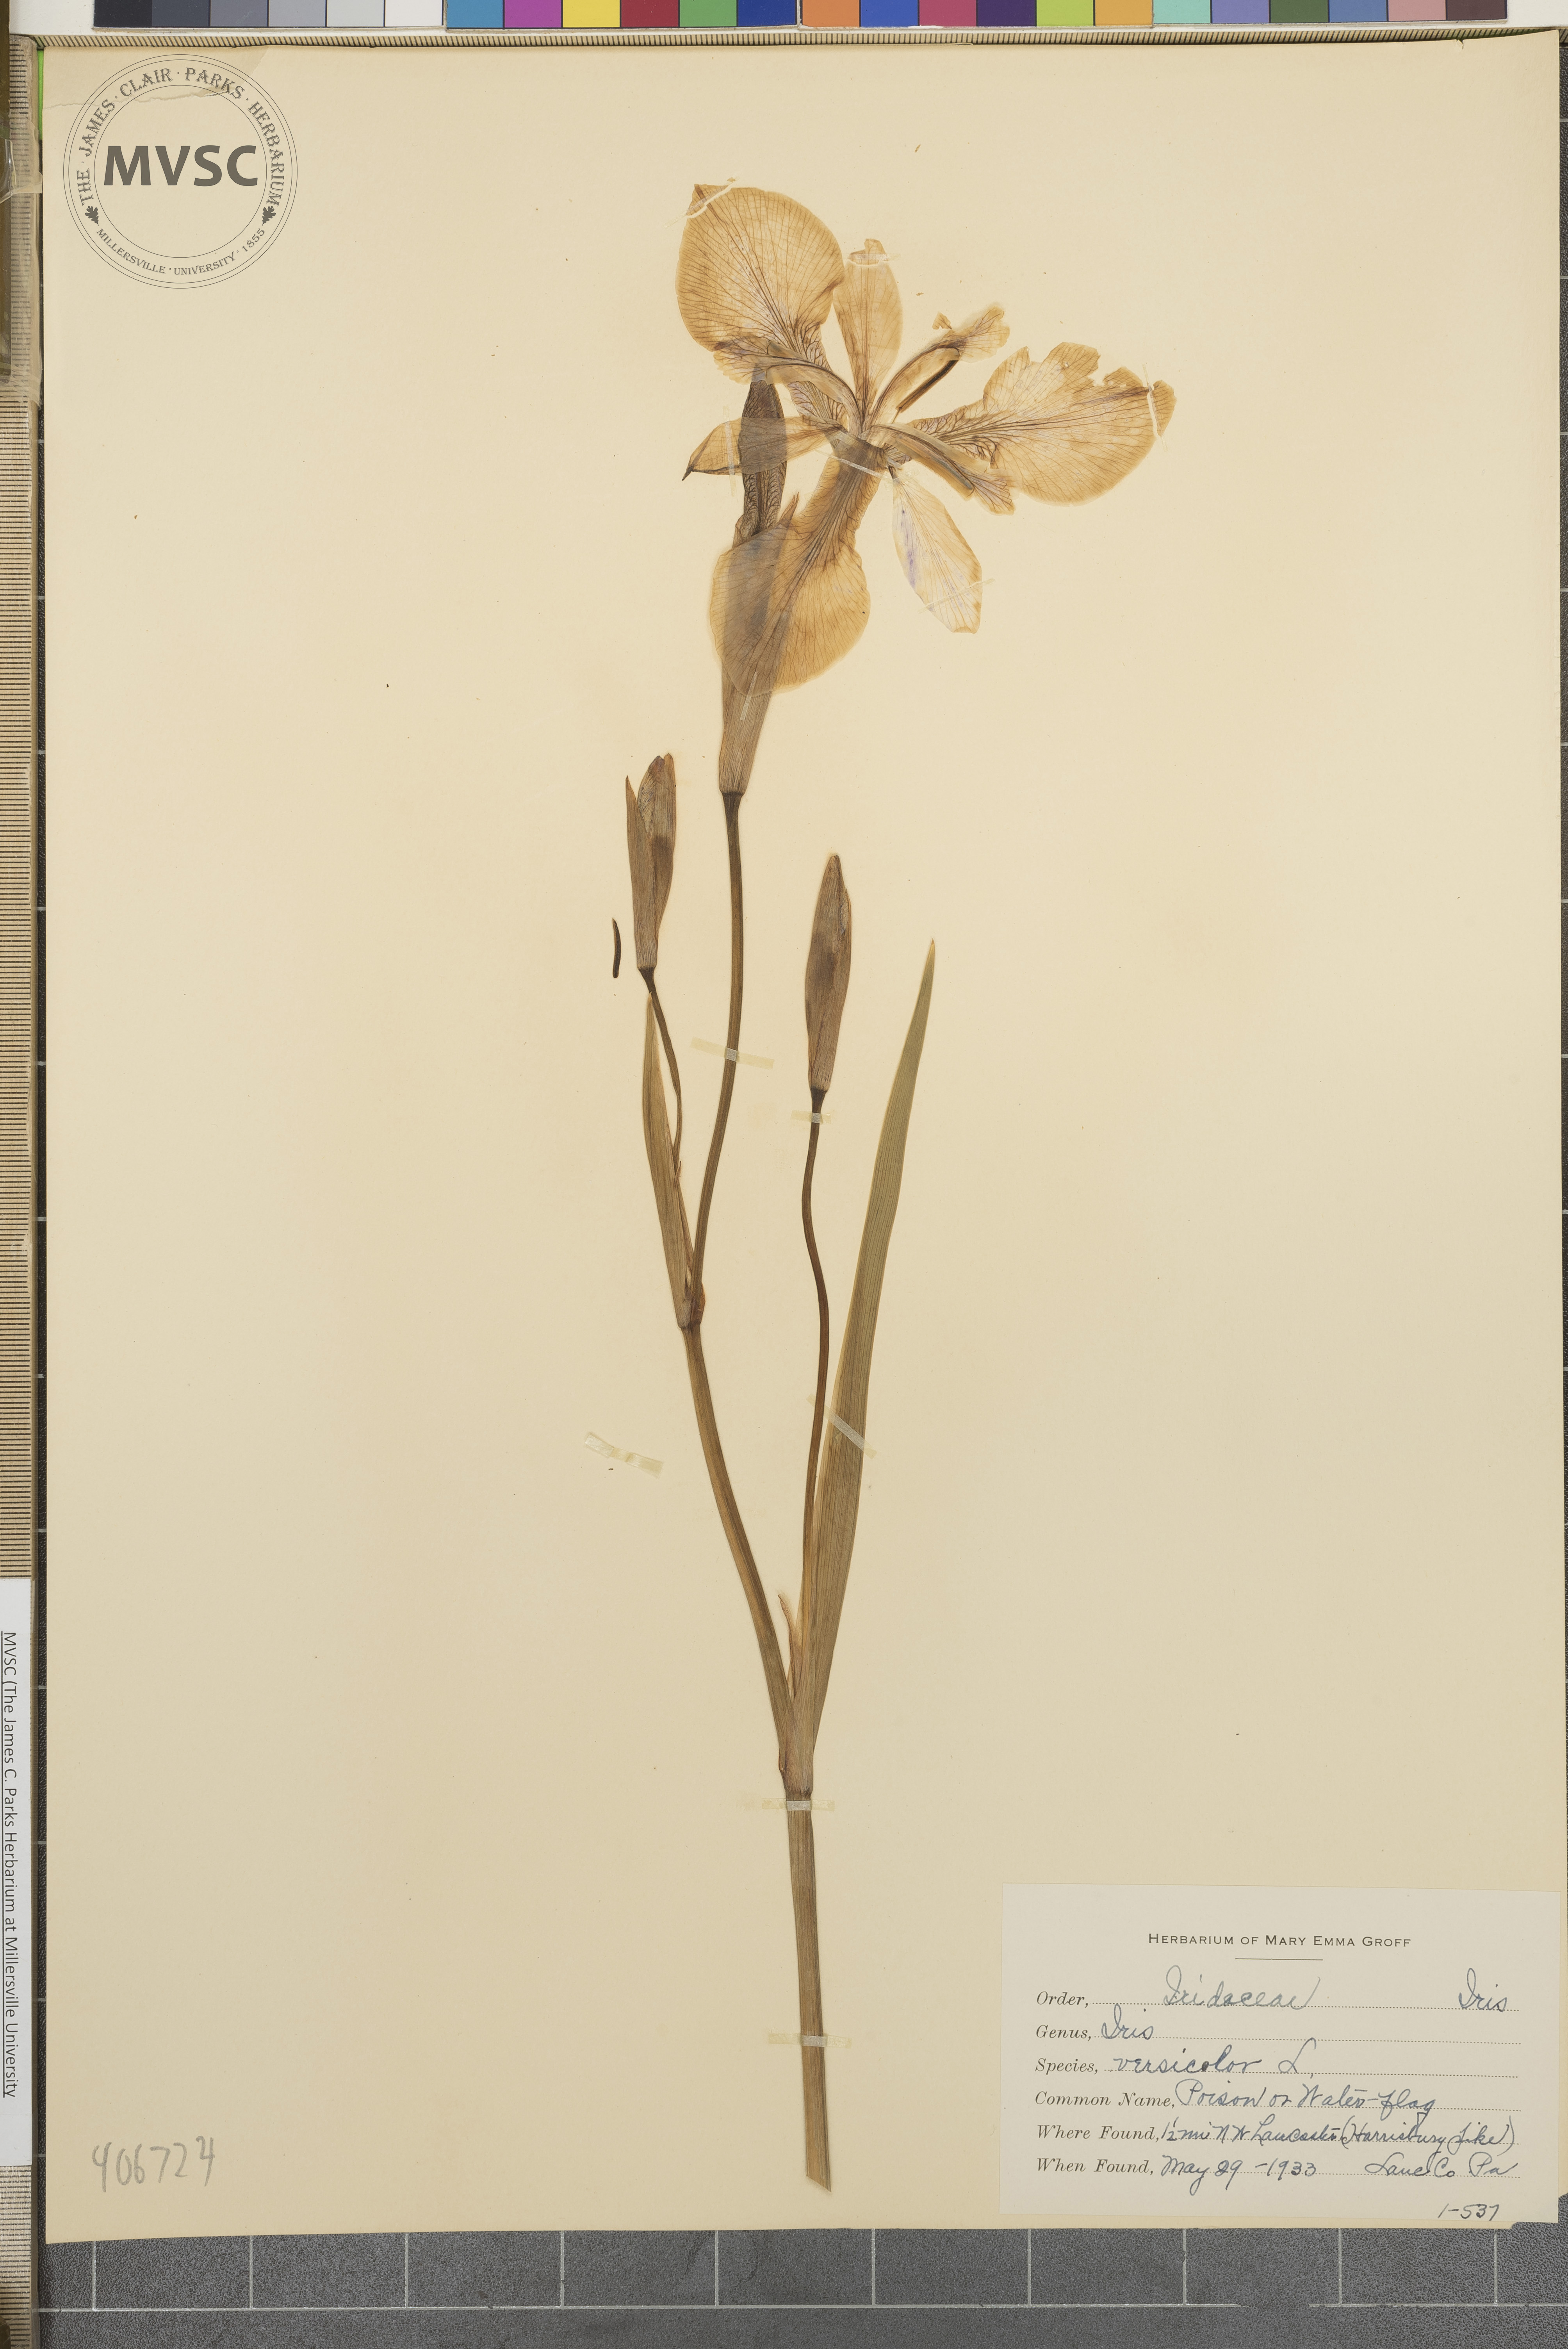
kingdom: Plantae
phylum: Tracheophyta
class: Liliopsida
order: Asparagales
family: Iridaceae
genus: Iris
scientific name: Iris versicolor
